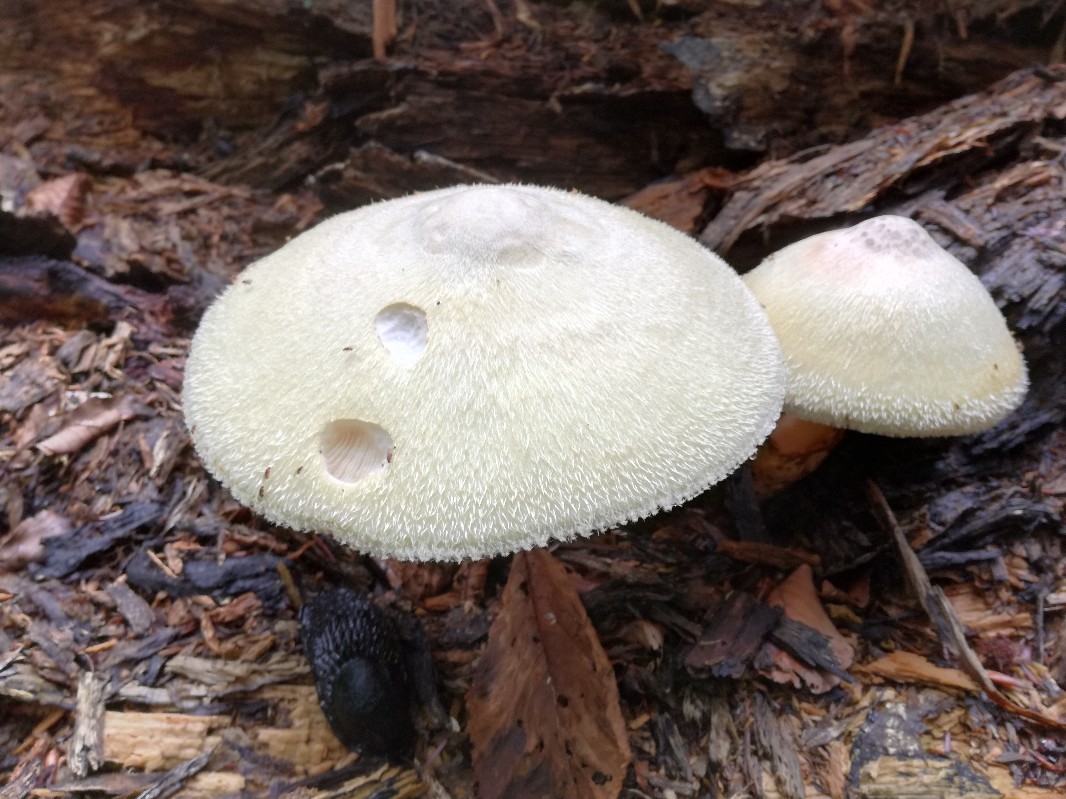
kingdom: Fungi
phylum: Basidiomycota
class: Agaricomycetes
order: Agaricales
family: Pluteaceae
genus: Volvariella
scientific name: Volvariella bombycina
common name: silkehåret posesvamp
